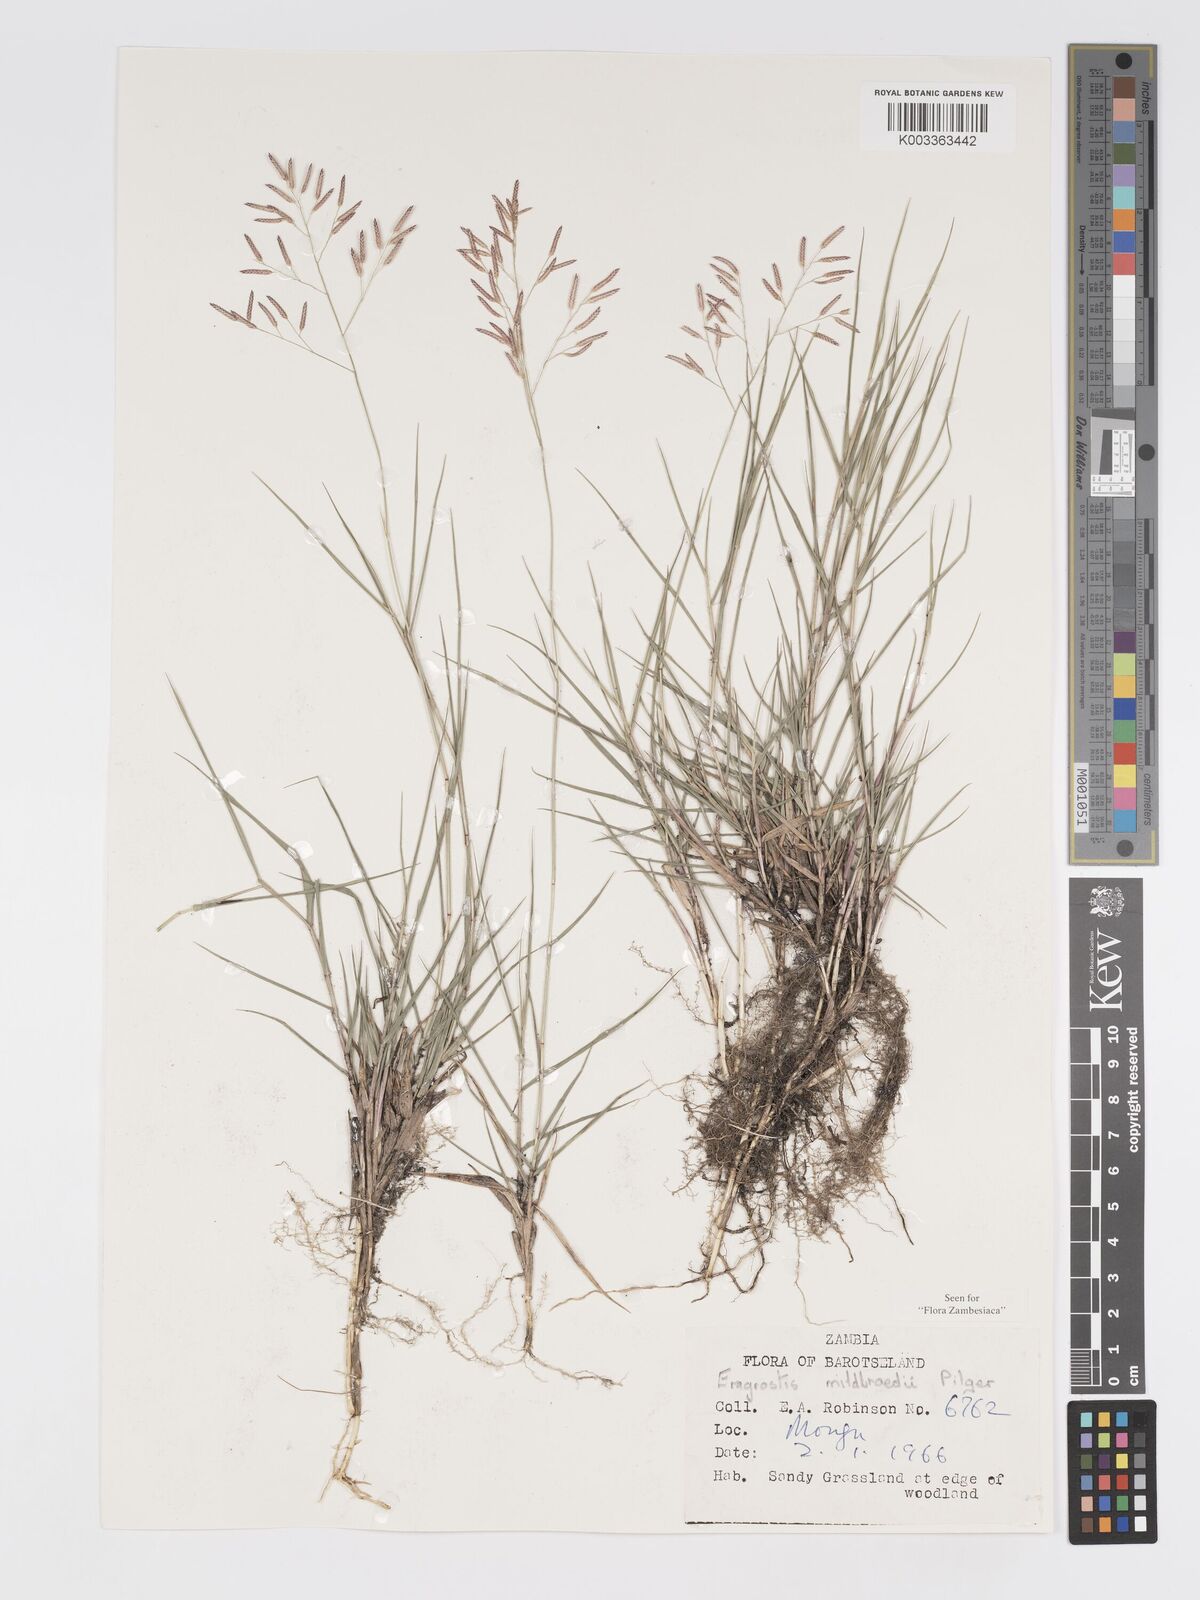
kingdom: Plantae
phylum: Tracheophyta
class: Liliopsida
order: Poales
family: Poaceae
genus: Eragrostis
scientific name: Eragrostis mildbraedii
